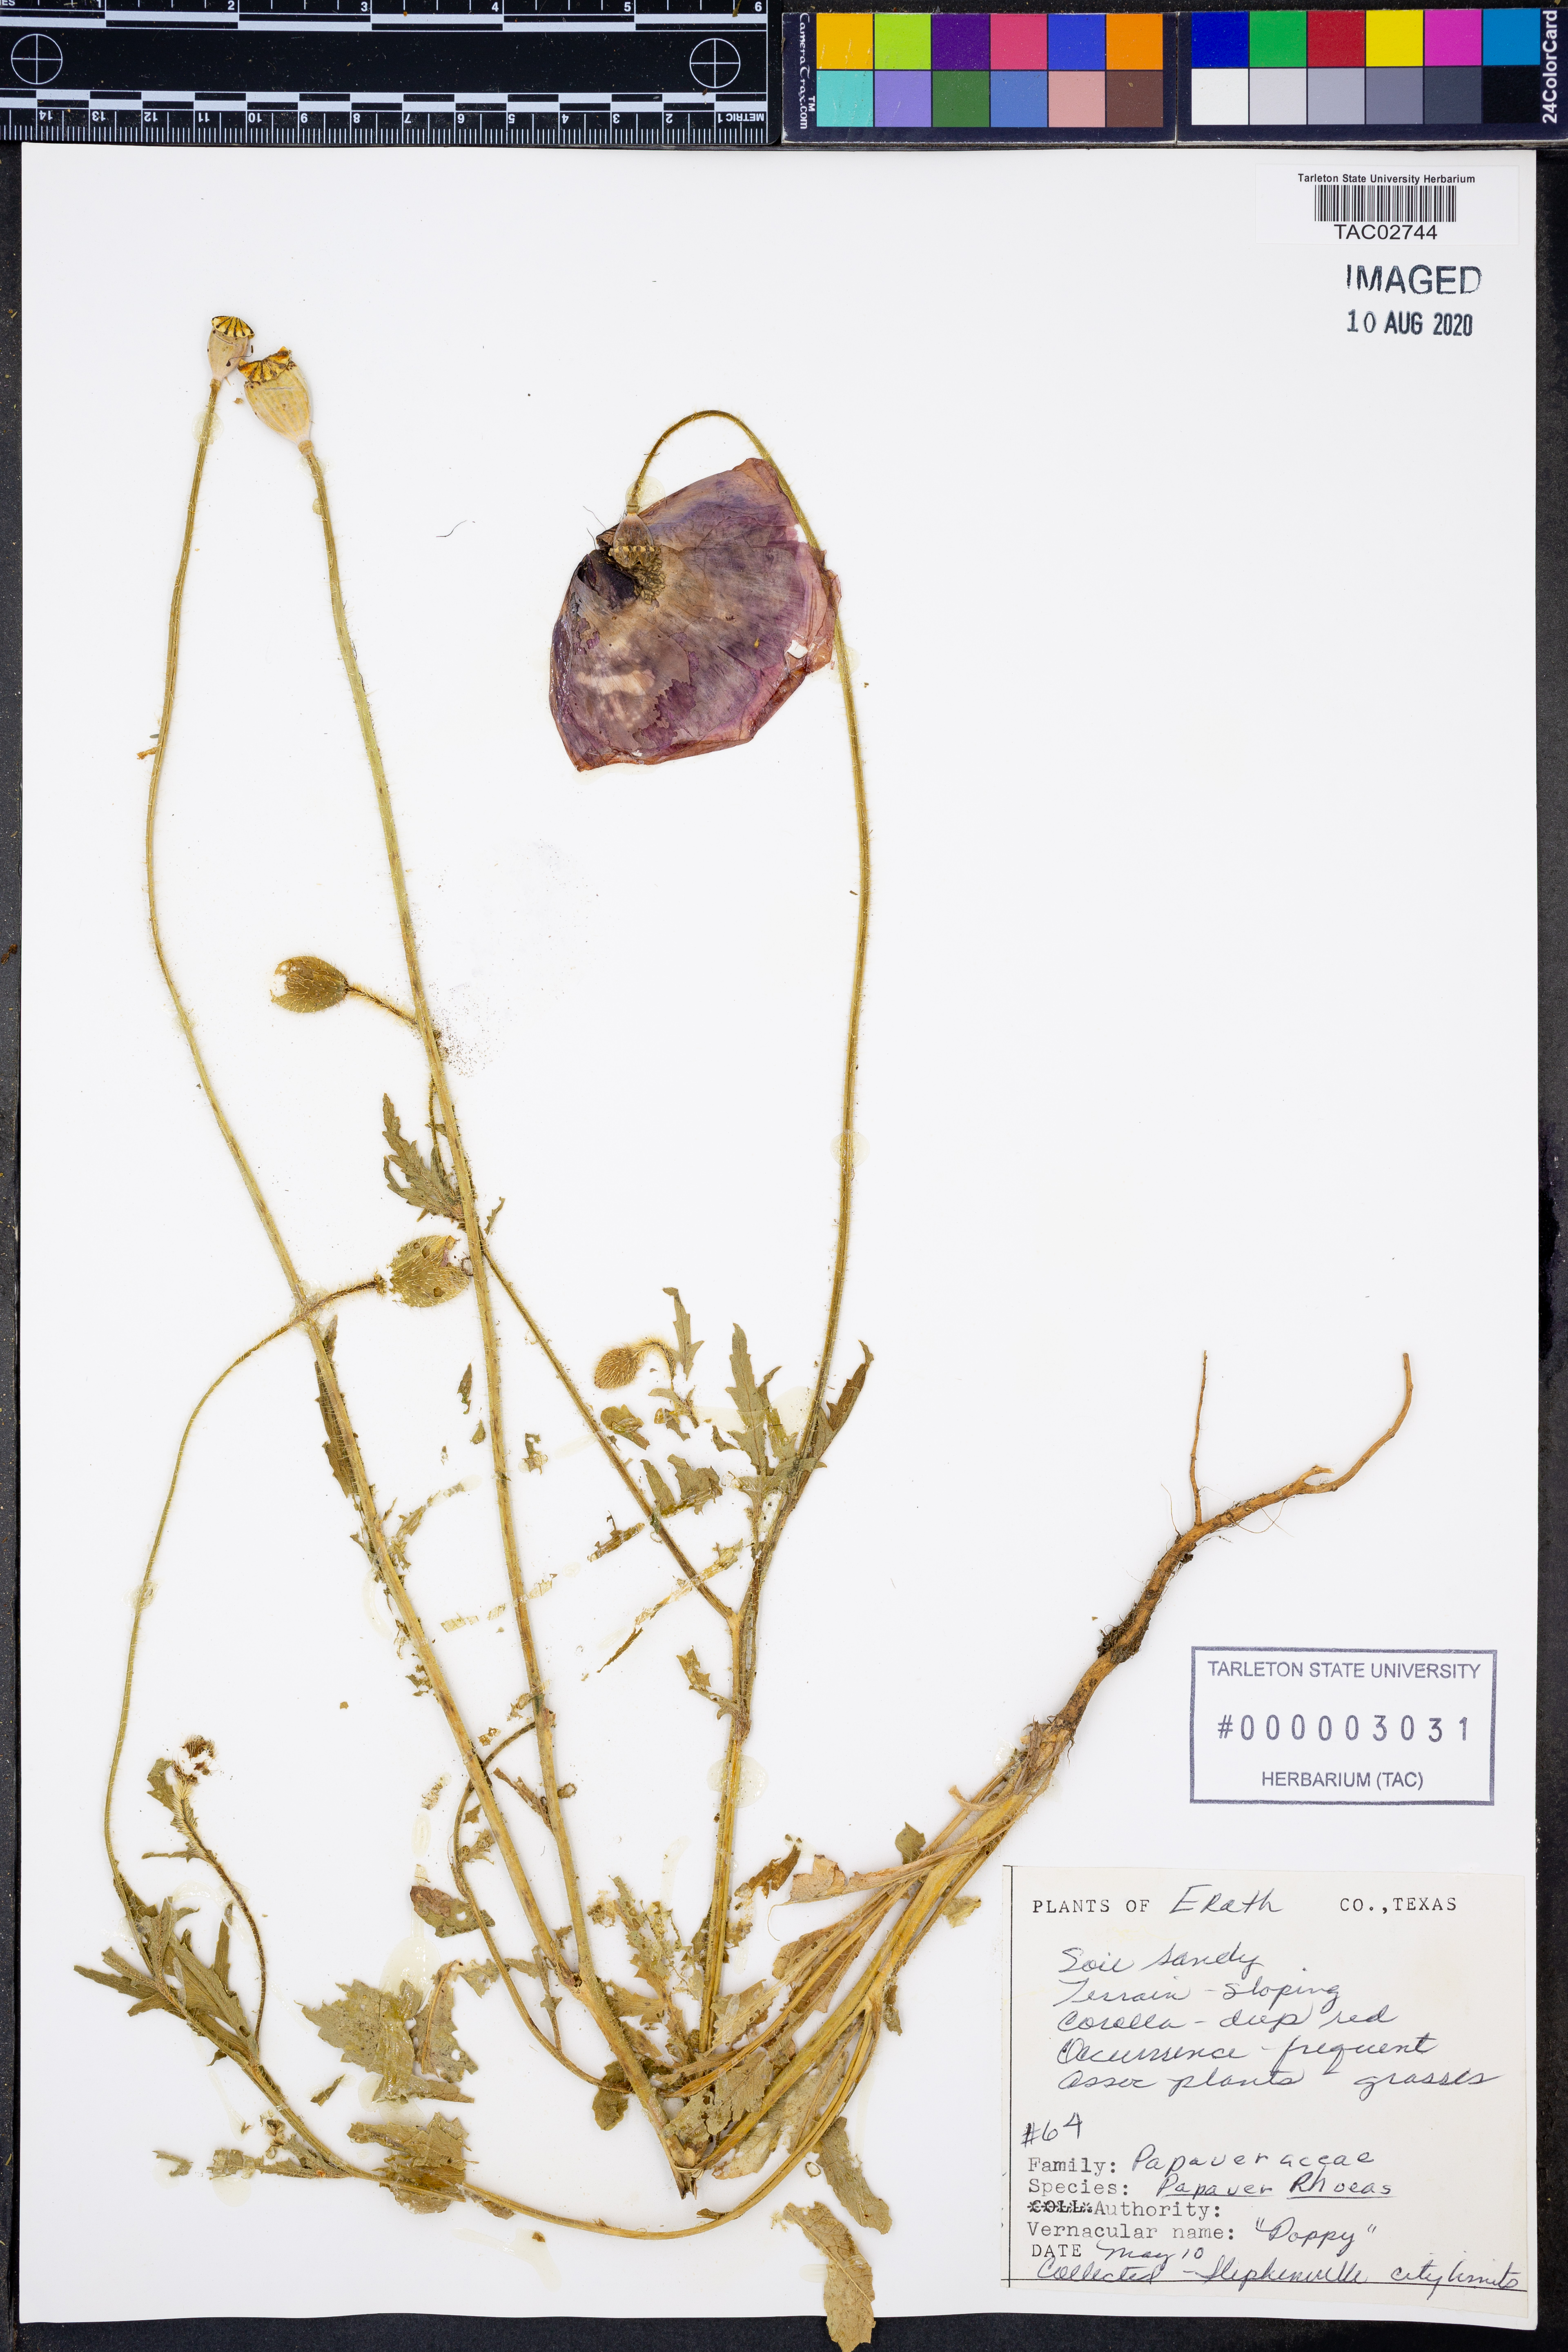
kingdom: Plantae
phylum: Tracheophyta
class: Magnoliopsida
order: Ranunculales
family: Papaveraceae
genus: Papaver
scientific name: Papaver rhoeas
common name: Corn poppy
